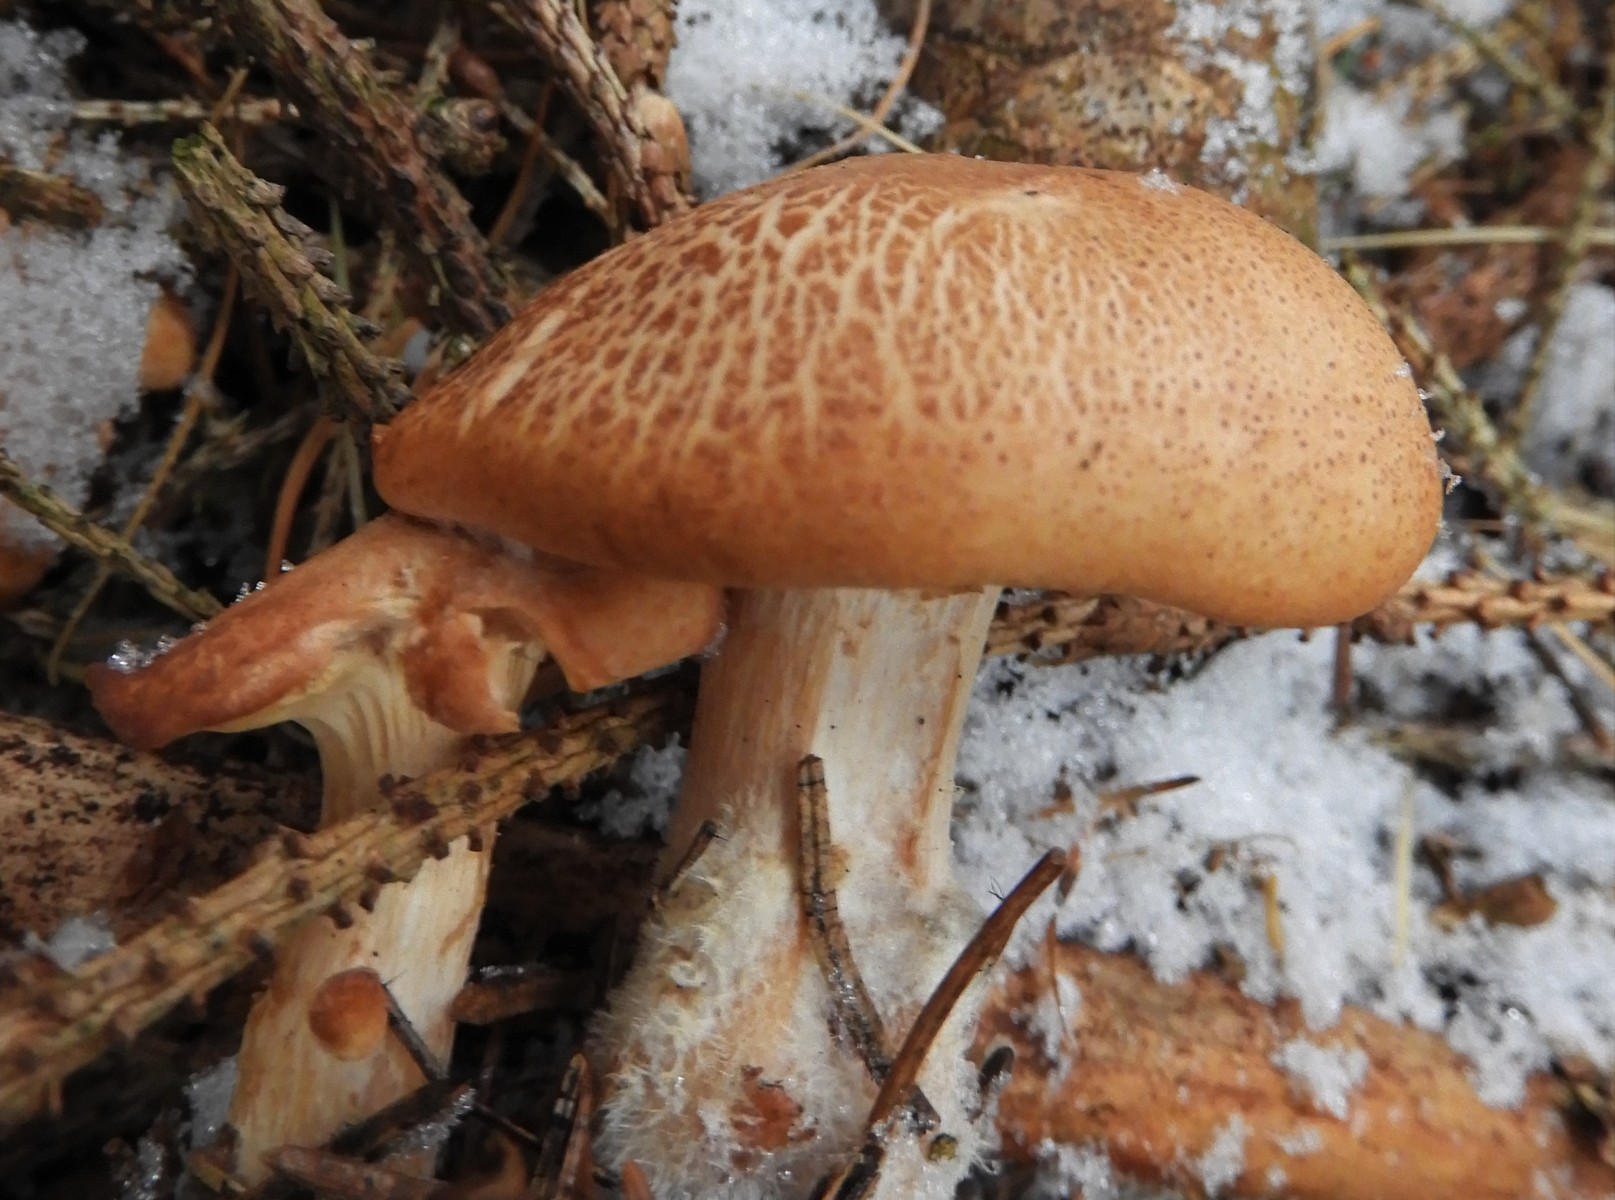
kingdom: Fungi
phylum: Basidiomycota
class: Agaricomycetes
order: Agaricales
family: Tricholomataceae
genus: Paralepista
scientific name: Paralepista gilva
